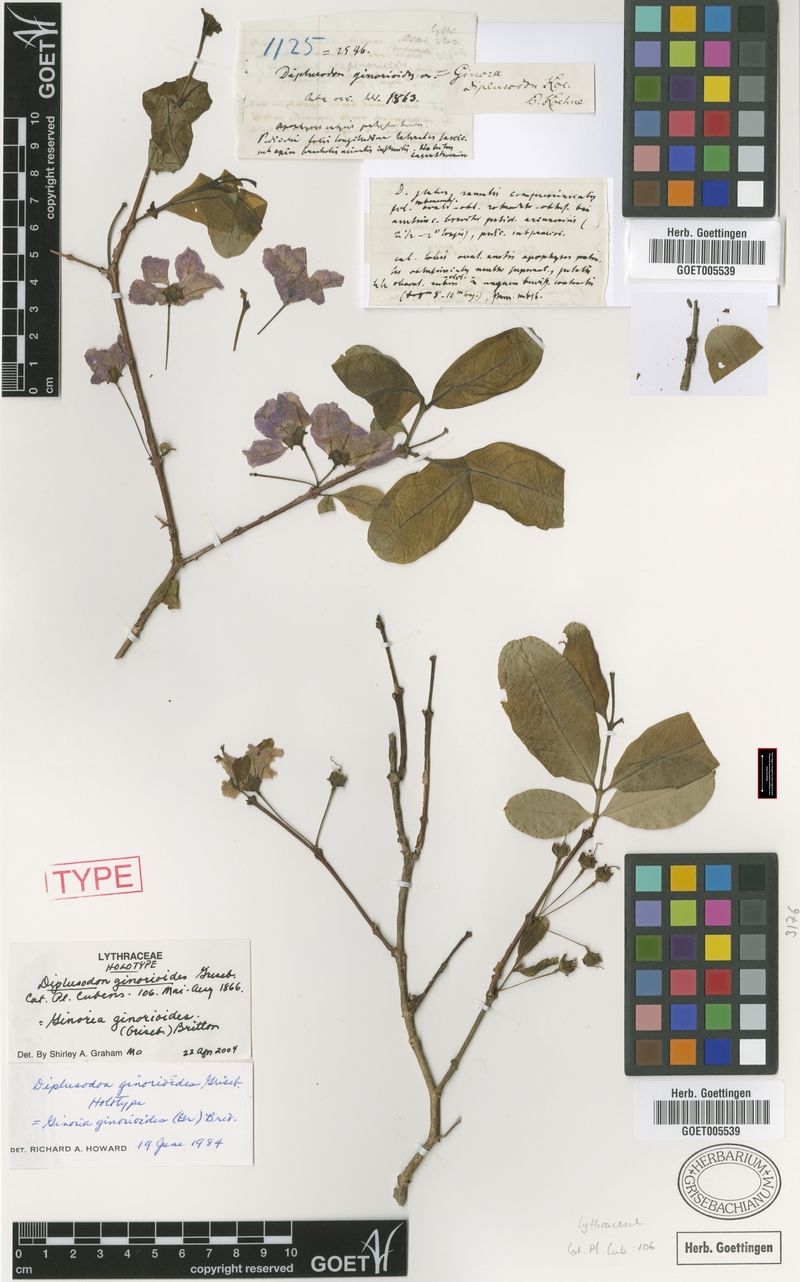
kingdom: Plantae
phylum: Tracheophyta
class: Magnoliopsida
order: Myrtales
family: Lythraceae
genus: Ginoria
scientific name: Ginoria ginorioides
